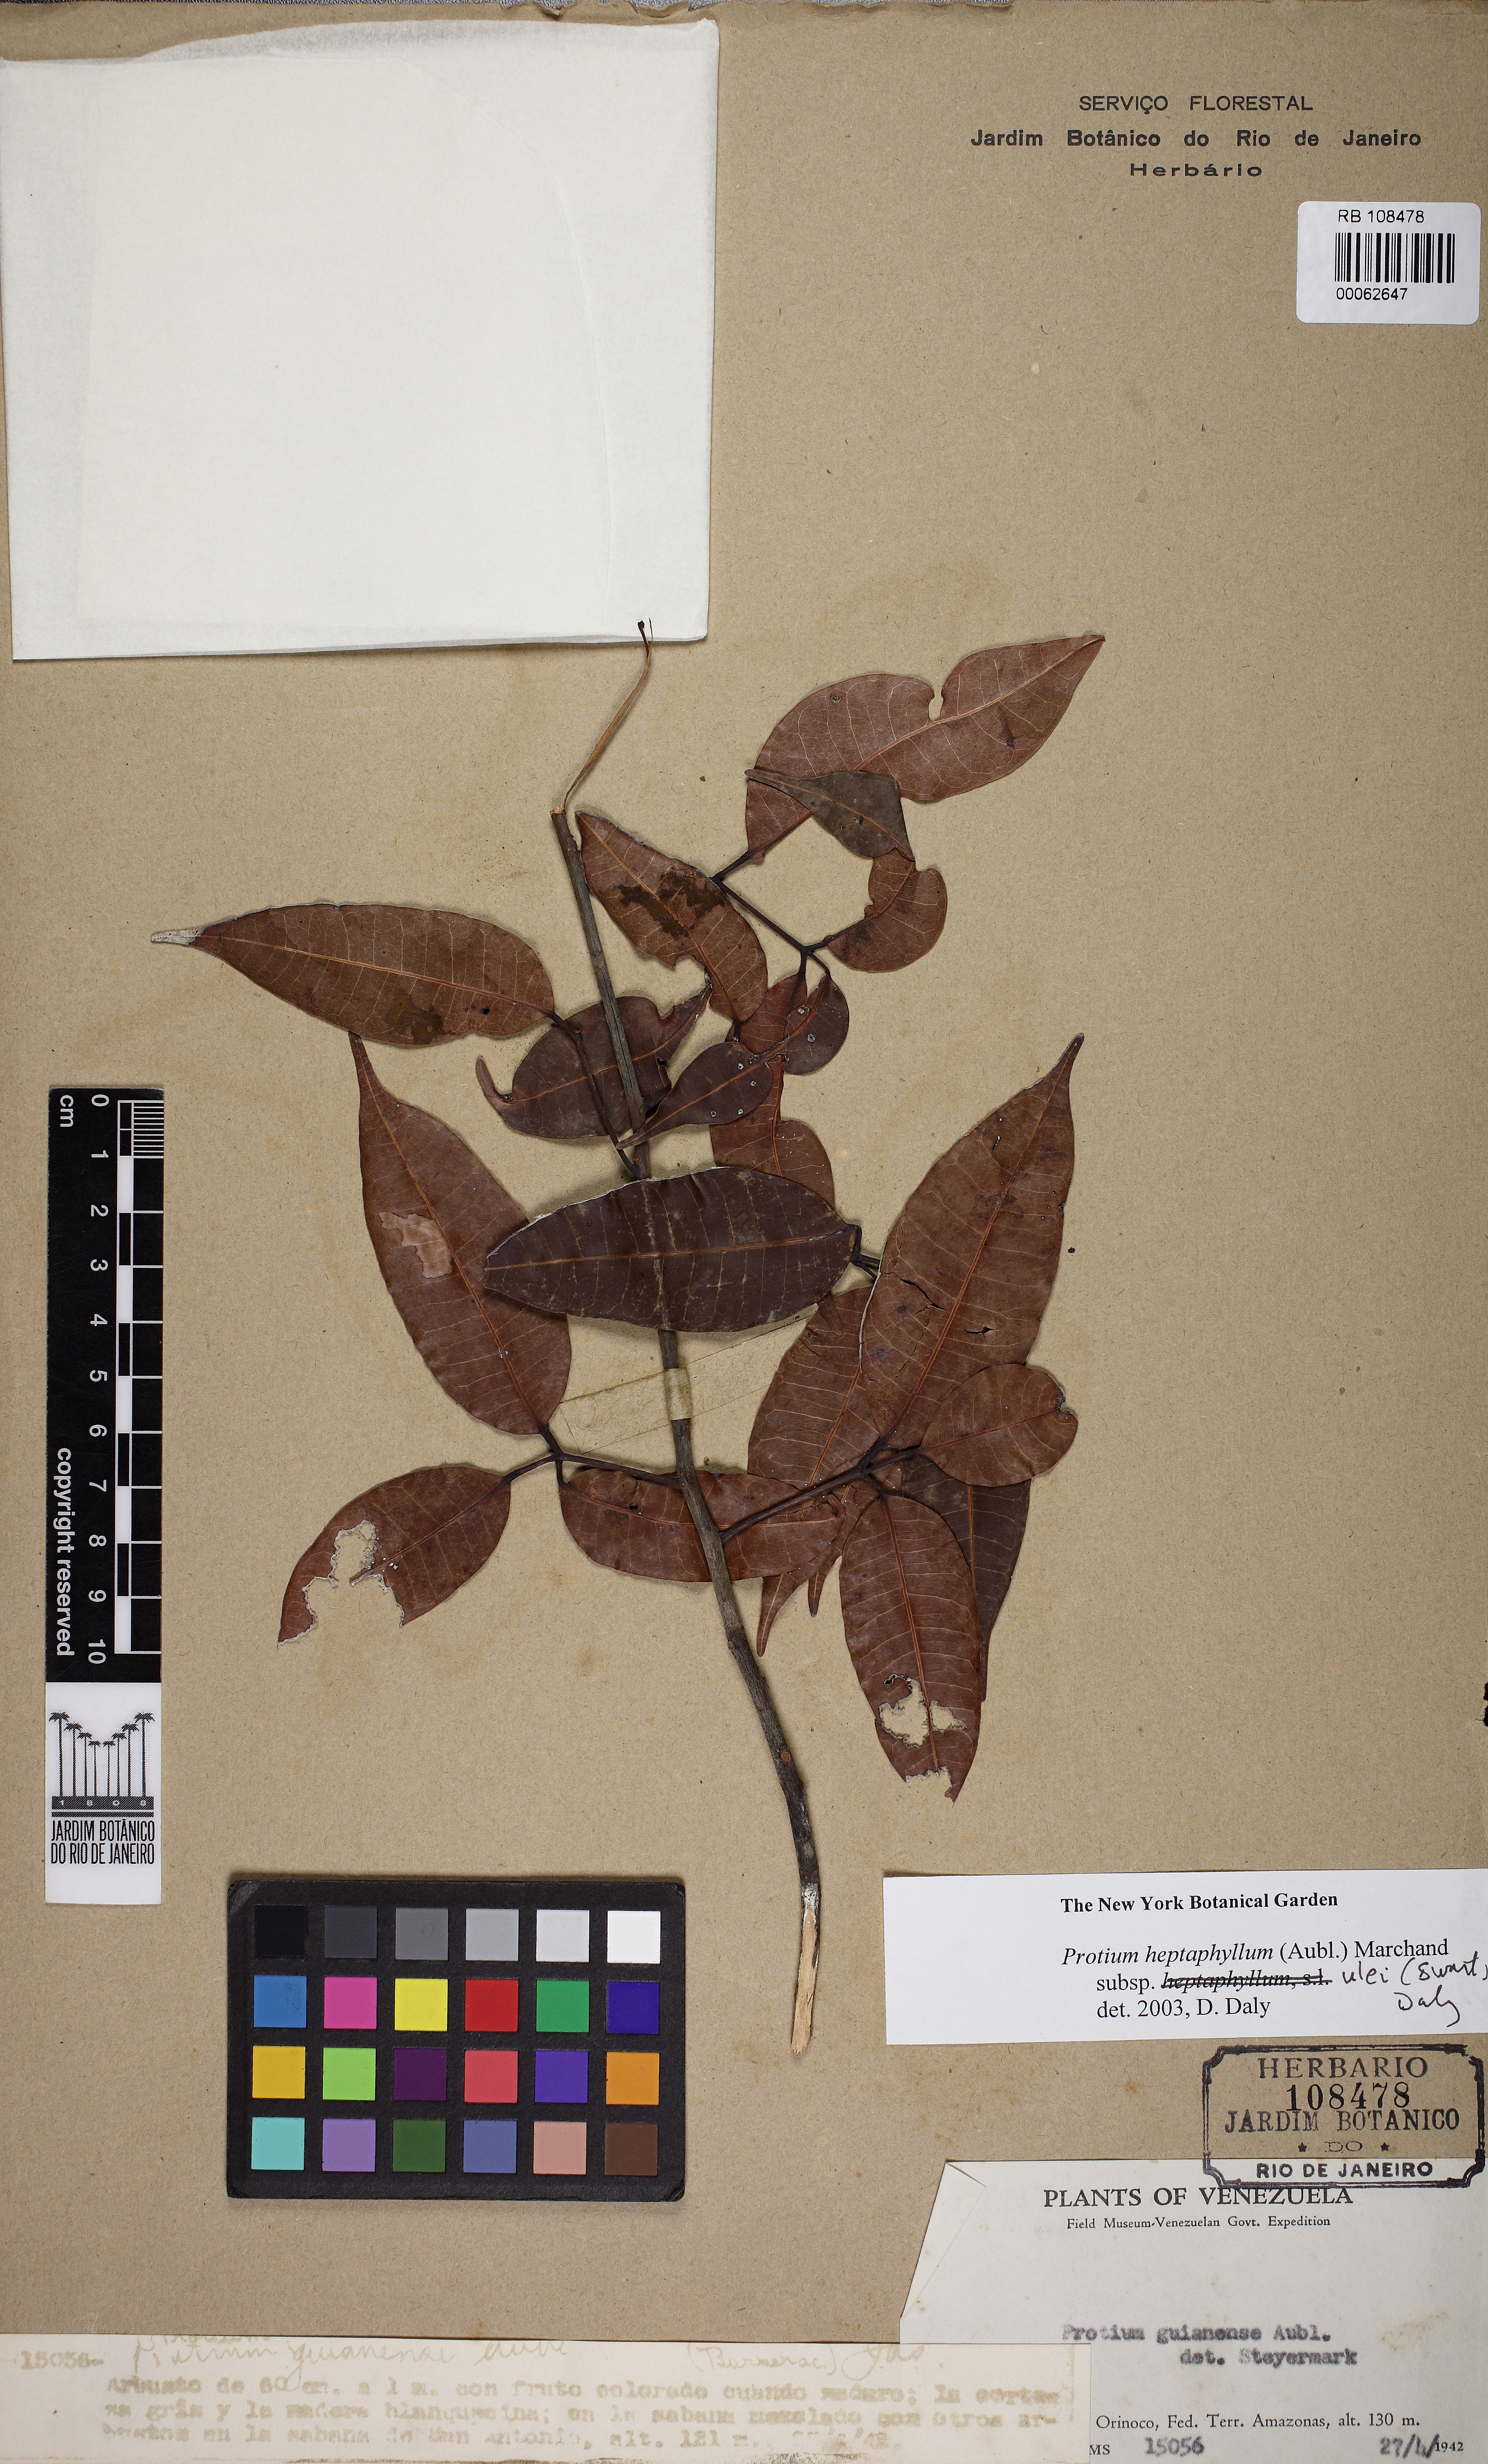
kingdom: Plantae
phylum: Tracheophyta
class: Magnoliopsida
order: Sapindales
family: Burseraceae
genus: Protium
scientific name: Protium heptaphyllum
